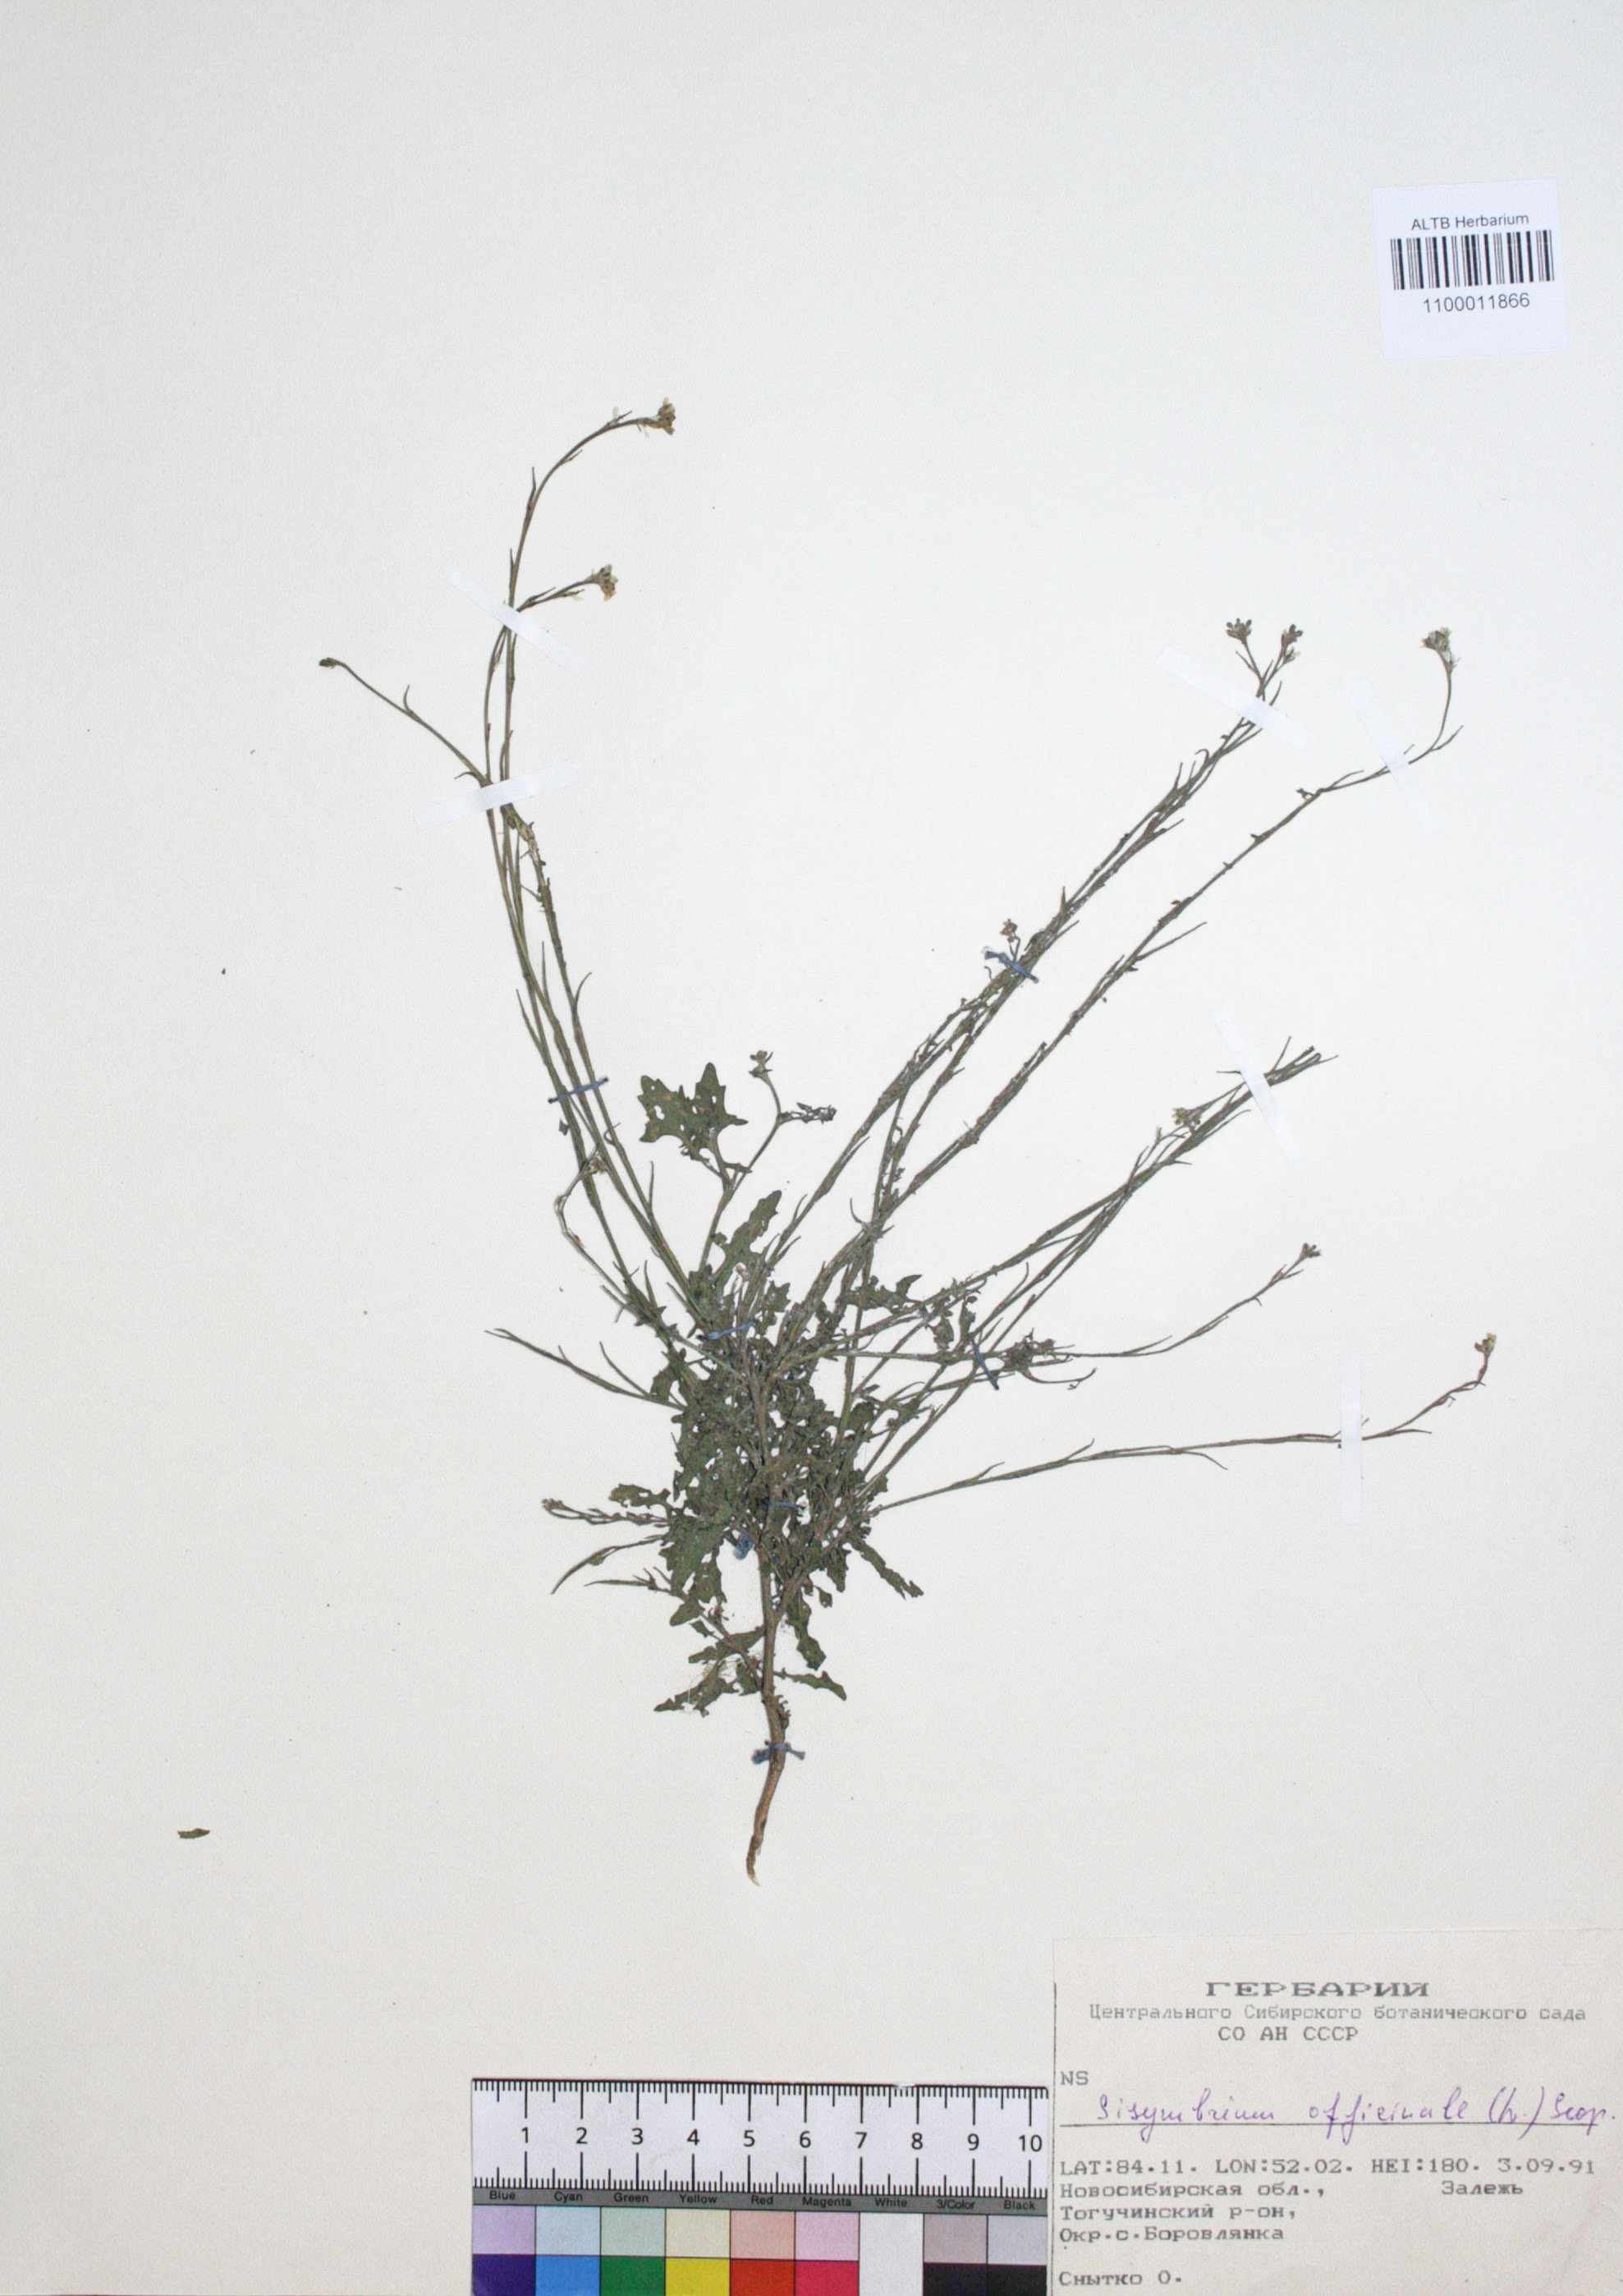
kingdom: Plantae
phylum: Tracheophyta
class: Magnoliopsida
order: Brassicales
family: Brassicaceae
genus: Sisymbrium
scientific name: Sisymbrium officinale
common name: Hedge mustard
